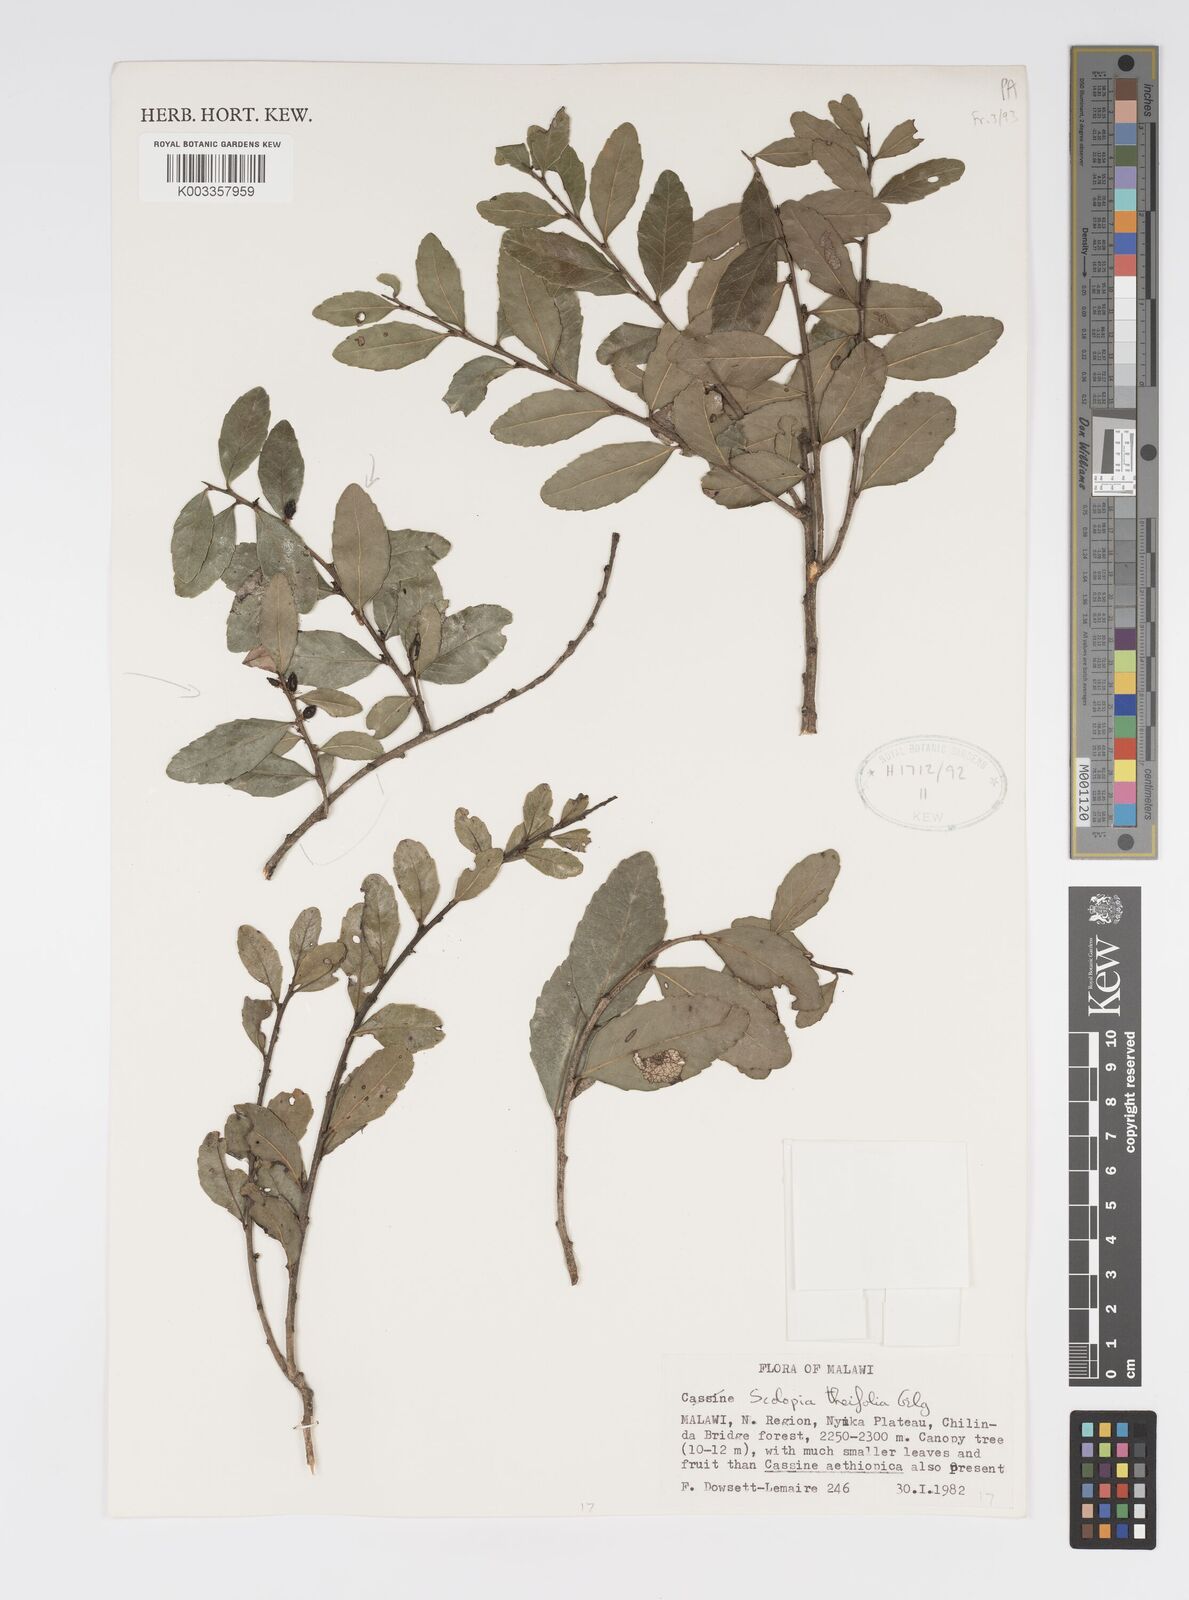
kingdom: Plantae
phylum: Tracheophyta
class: Magnoliopsida
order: Malpighiales
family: Salicaceae
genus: Scolopia
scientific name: Scolopia theifolia
